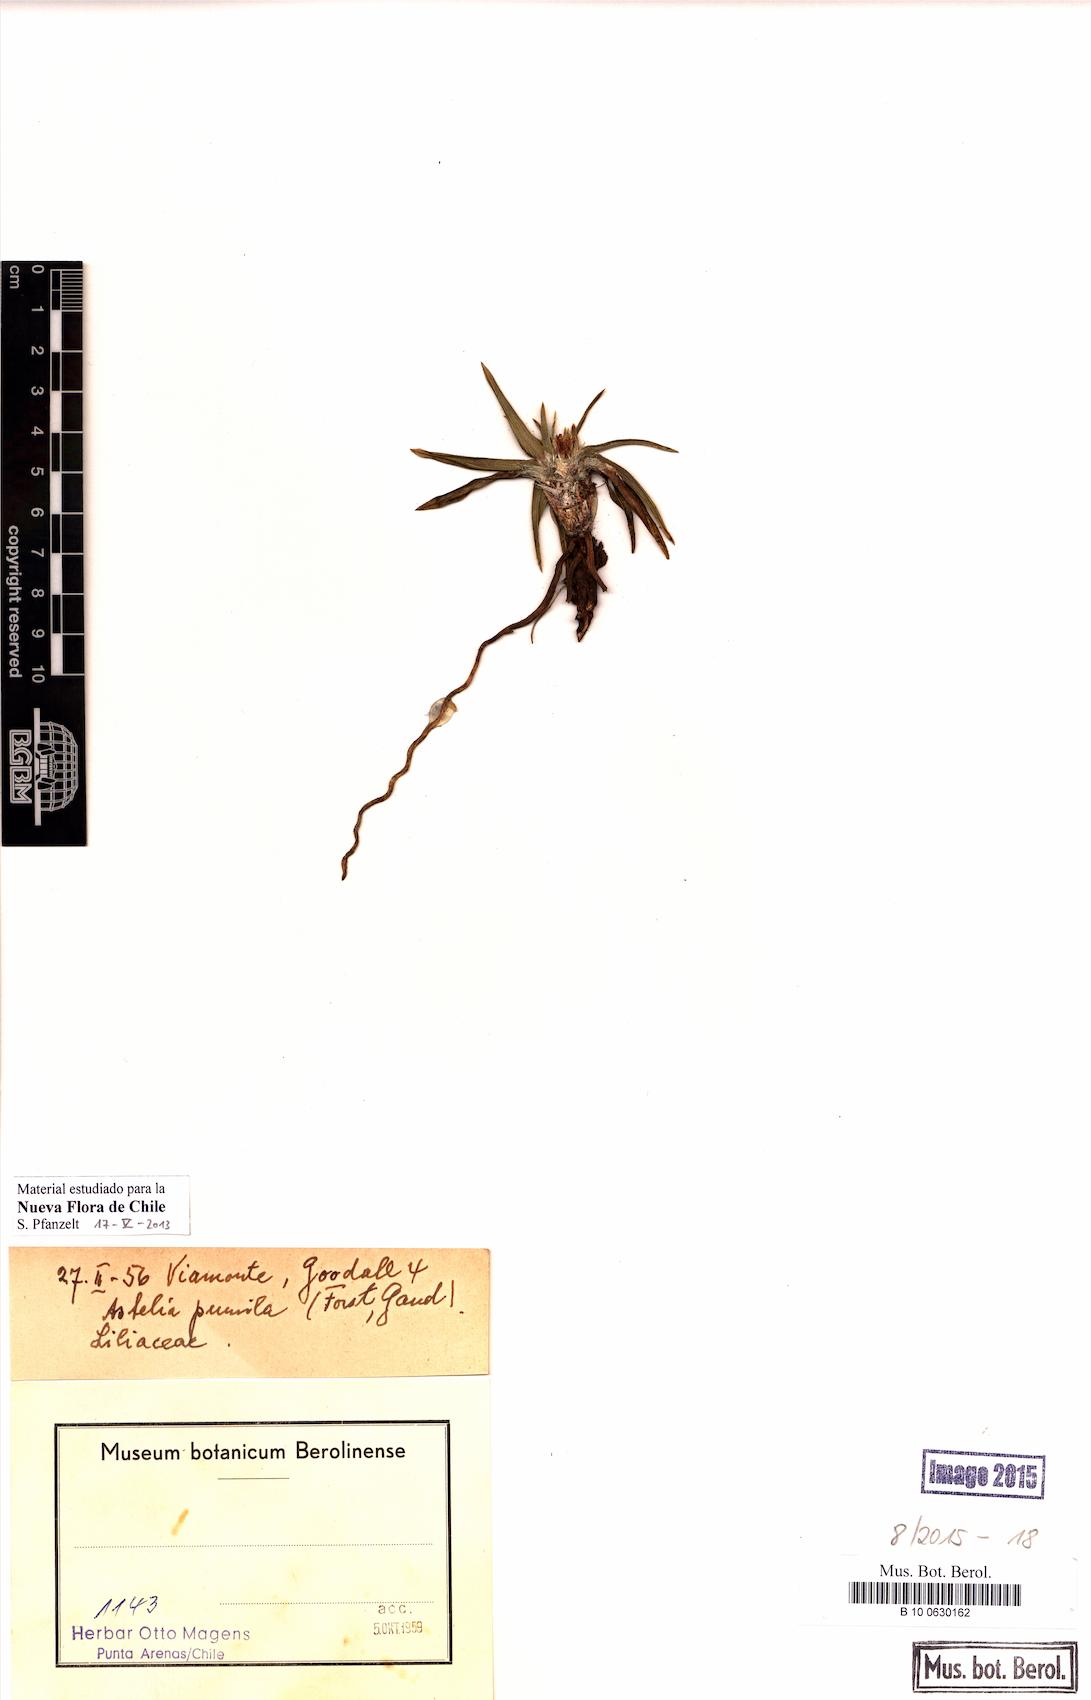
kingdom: Plantae
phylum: Tracheophyta
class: Liliopsida
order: Asparagales
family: Asteliaceae
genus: Astelia
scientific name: Astelia pumila
